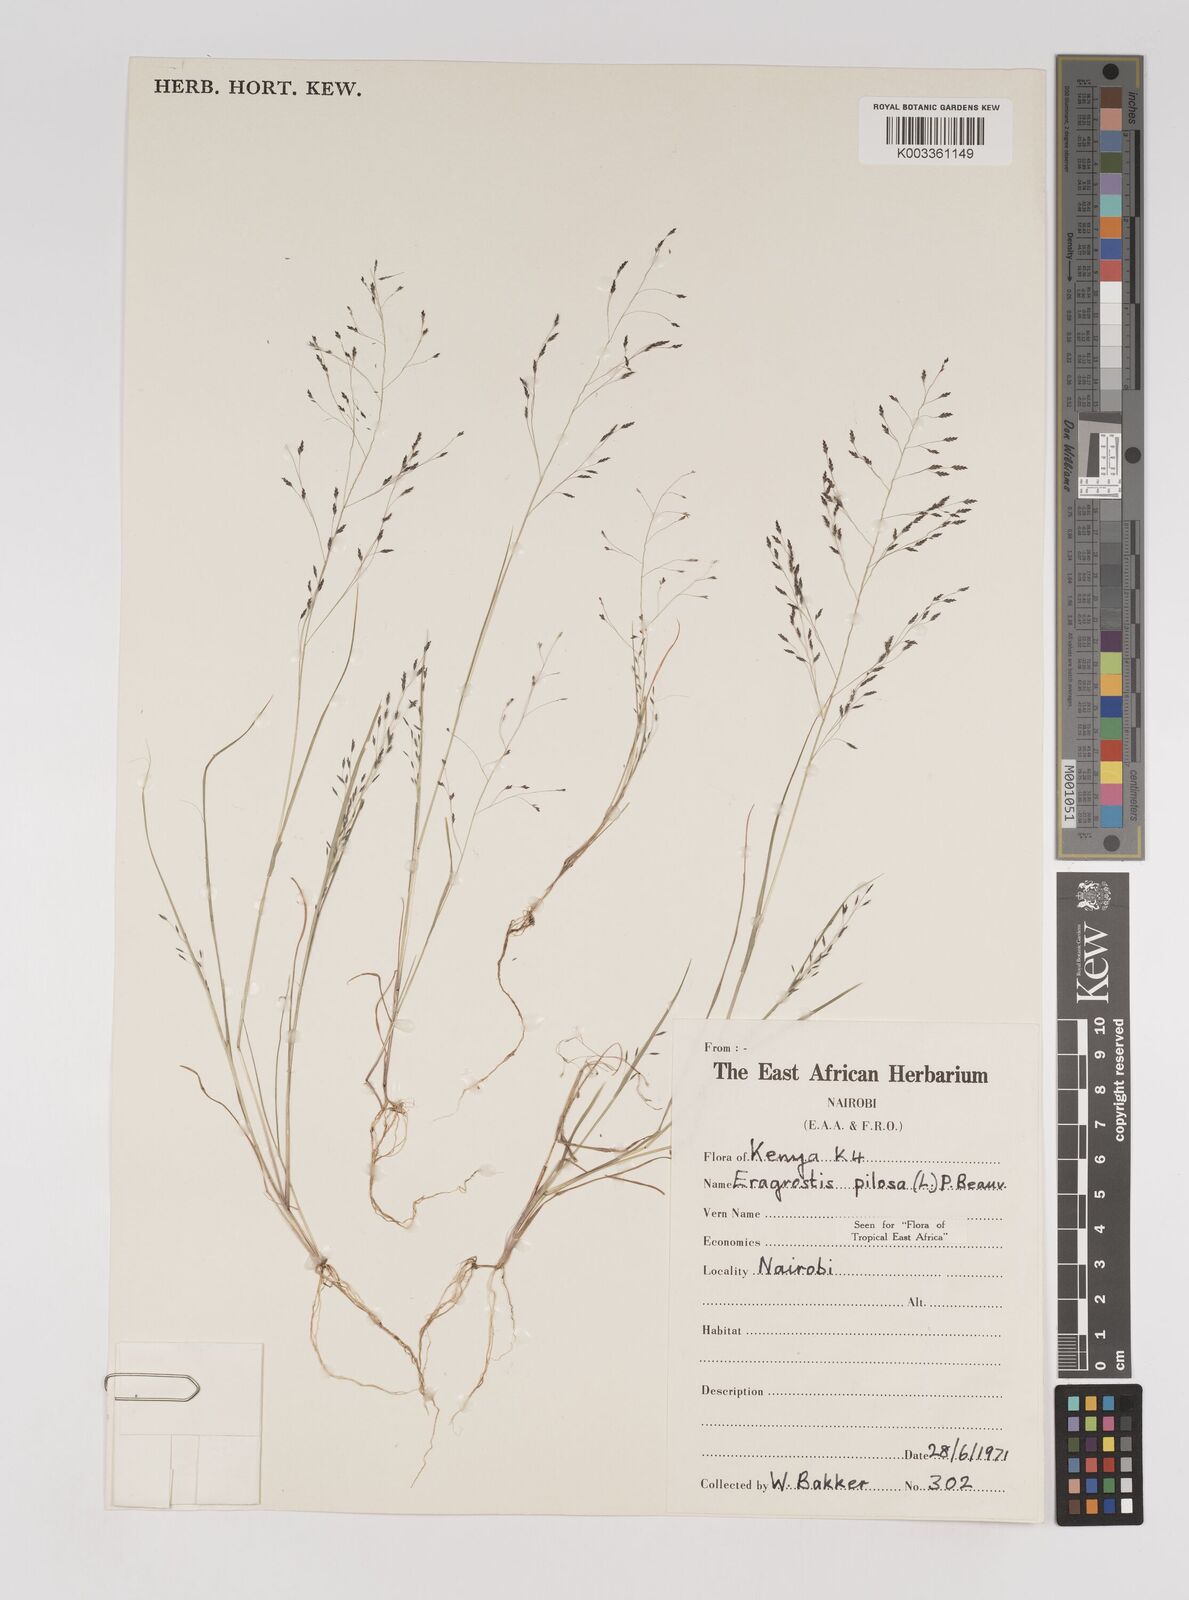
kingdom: Plantae
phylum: Tracheophyta
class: Liliopsida
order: Poales
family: Poaceae
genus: Eragrostis
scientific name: Eragrostis pilosa
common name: Indian lovegrass
